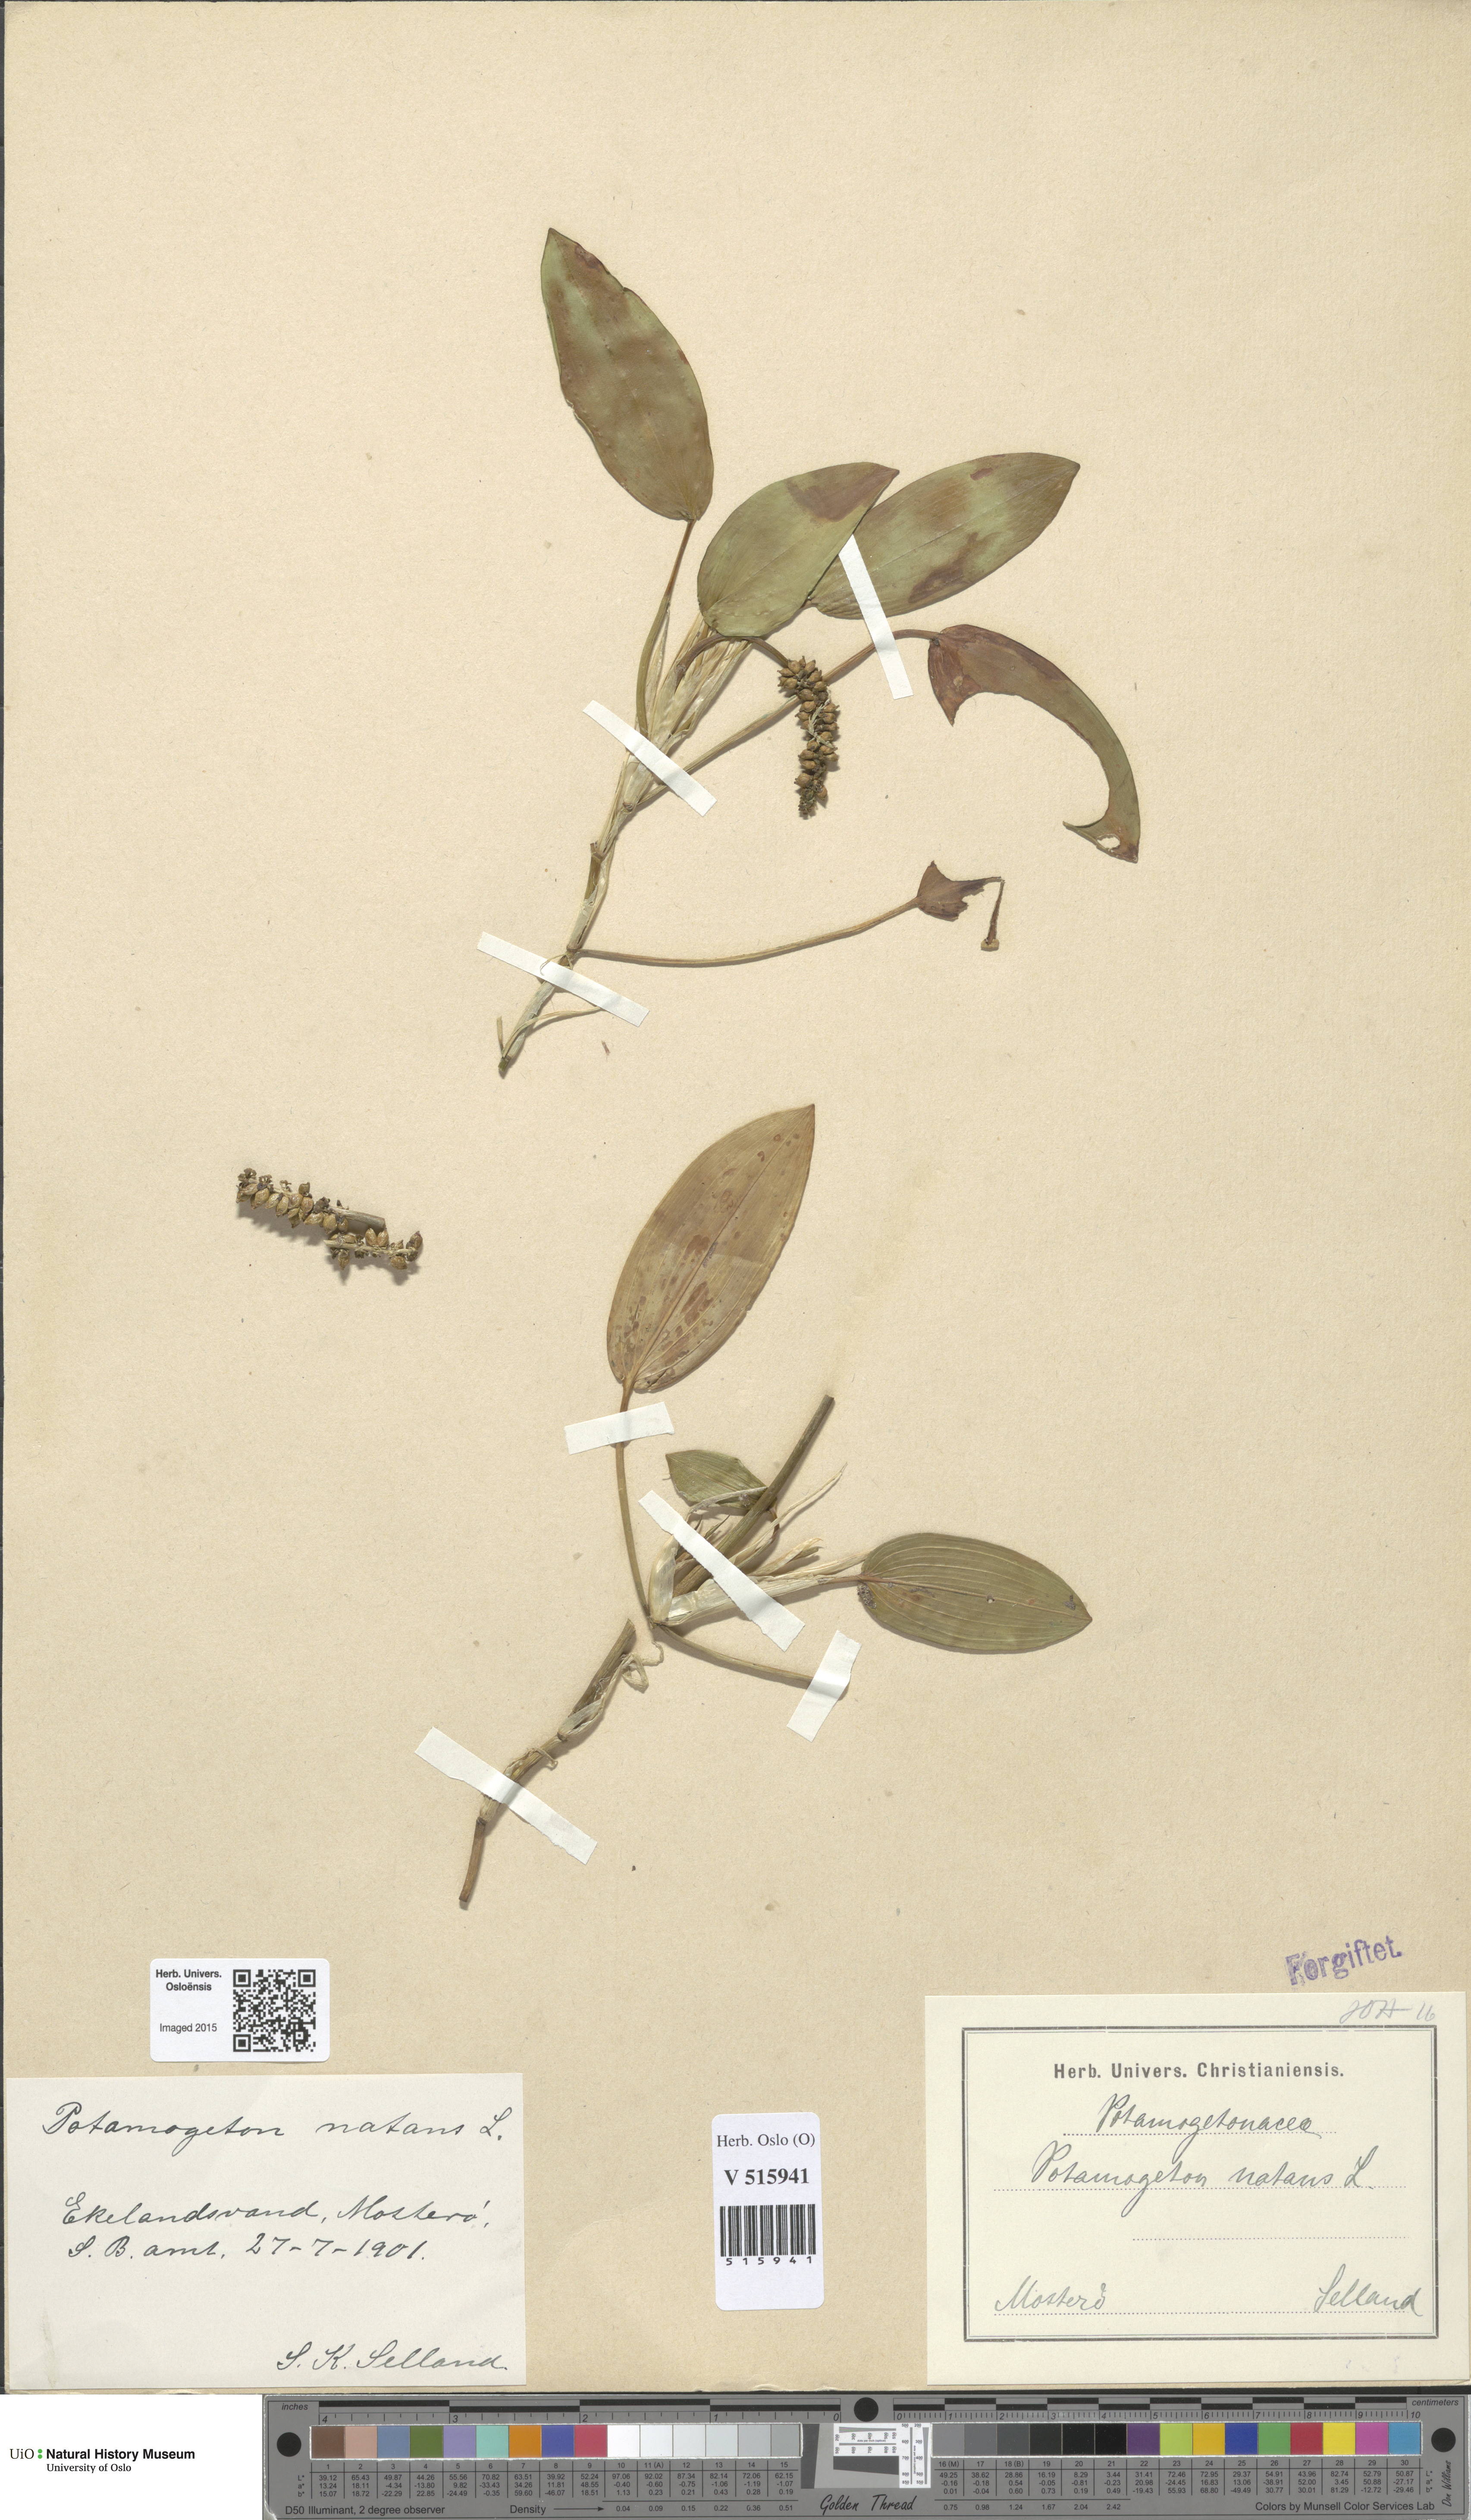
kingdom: Plantae
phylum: Tracheophyta
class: Liliopsida
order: Alismatales
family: Potamogetonaceae
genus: Potamogeton
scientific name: Potamogeton natans
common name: Broad-leaved pondweed
